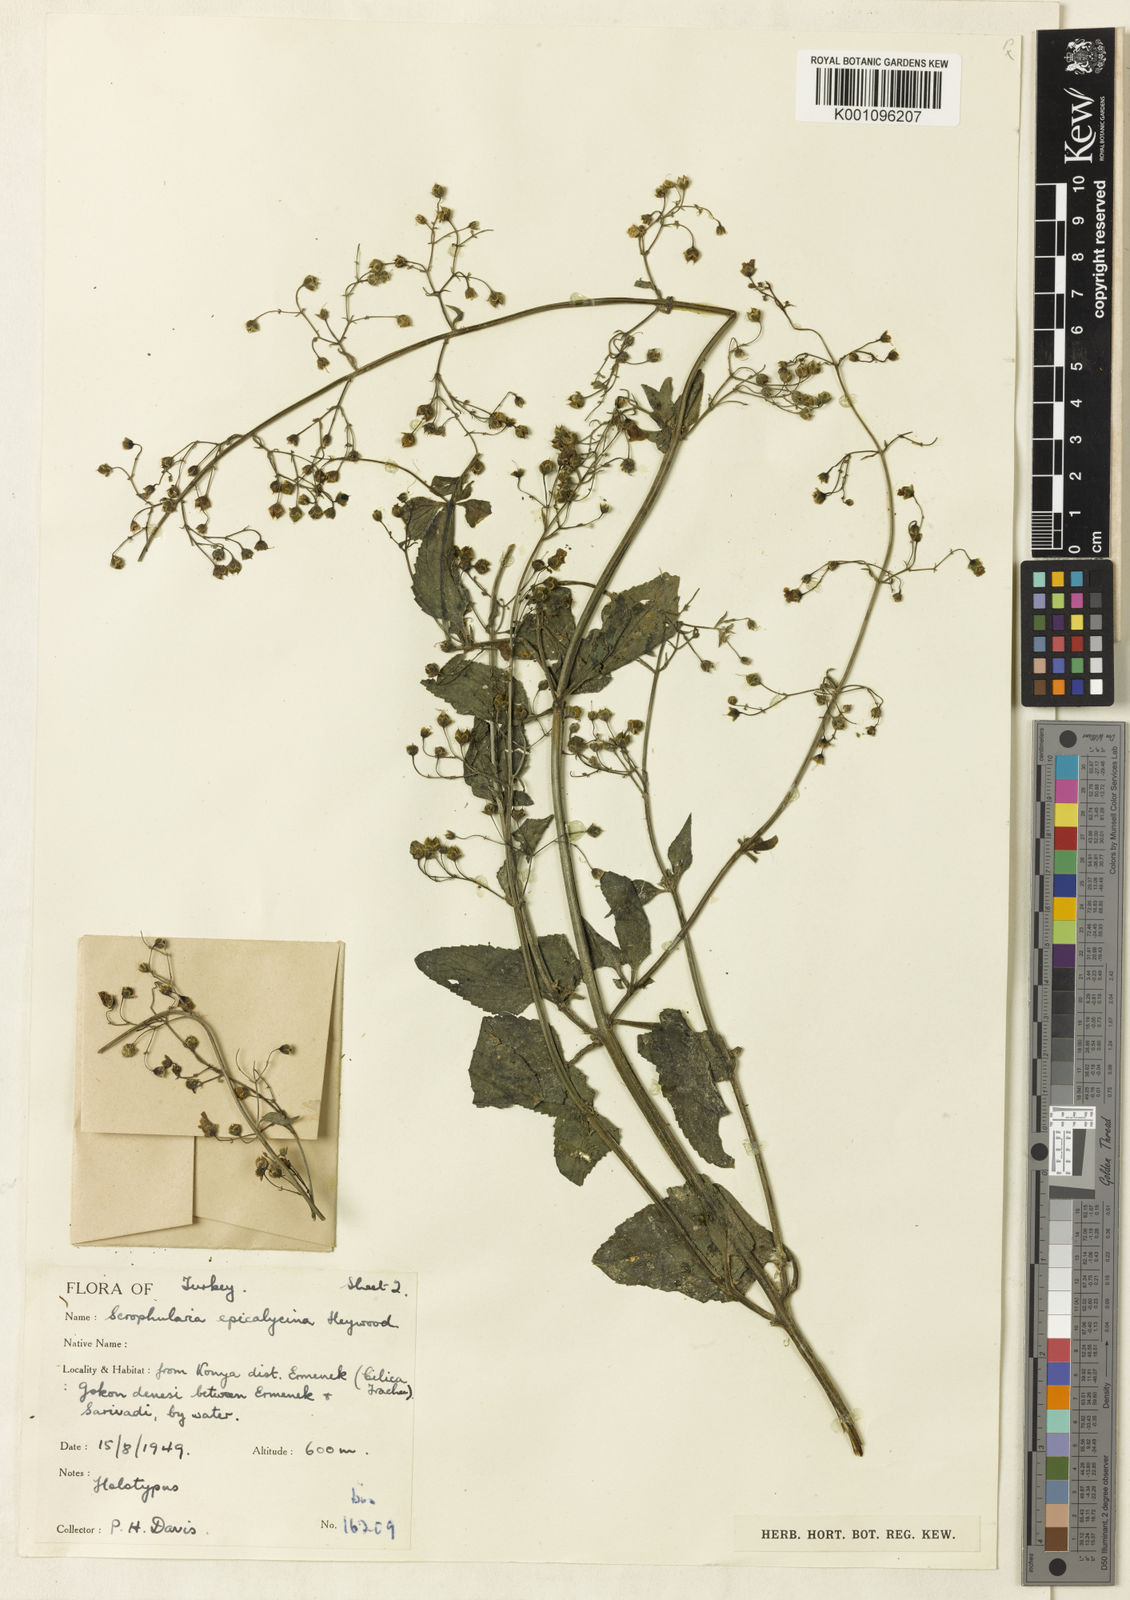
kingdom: Plantae
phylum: Tracheophyta
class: Magnoliopsida
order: Lamiales
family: Scrophulariaceae
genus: Scrophularia
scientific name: Scrophularia alata
